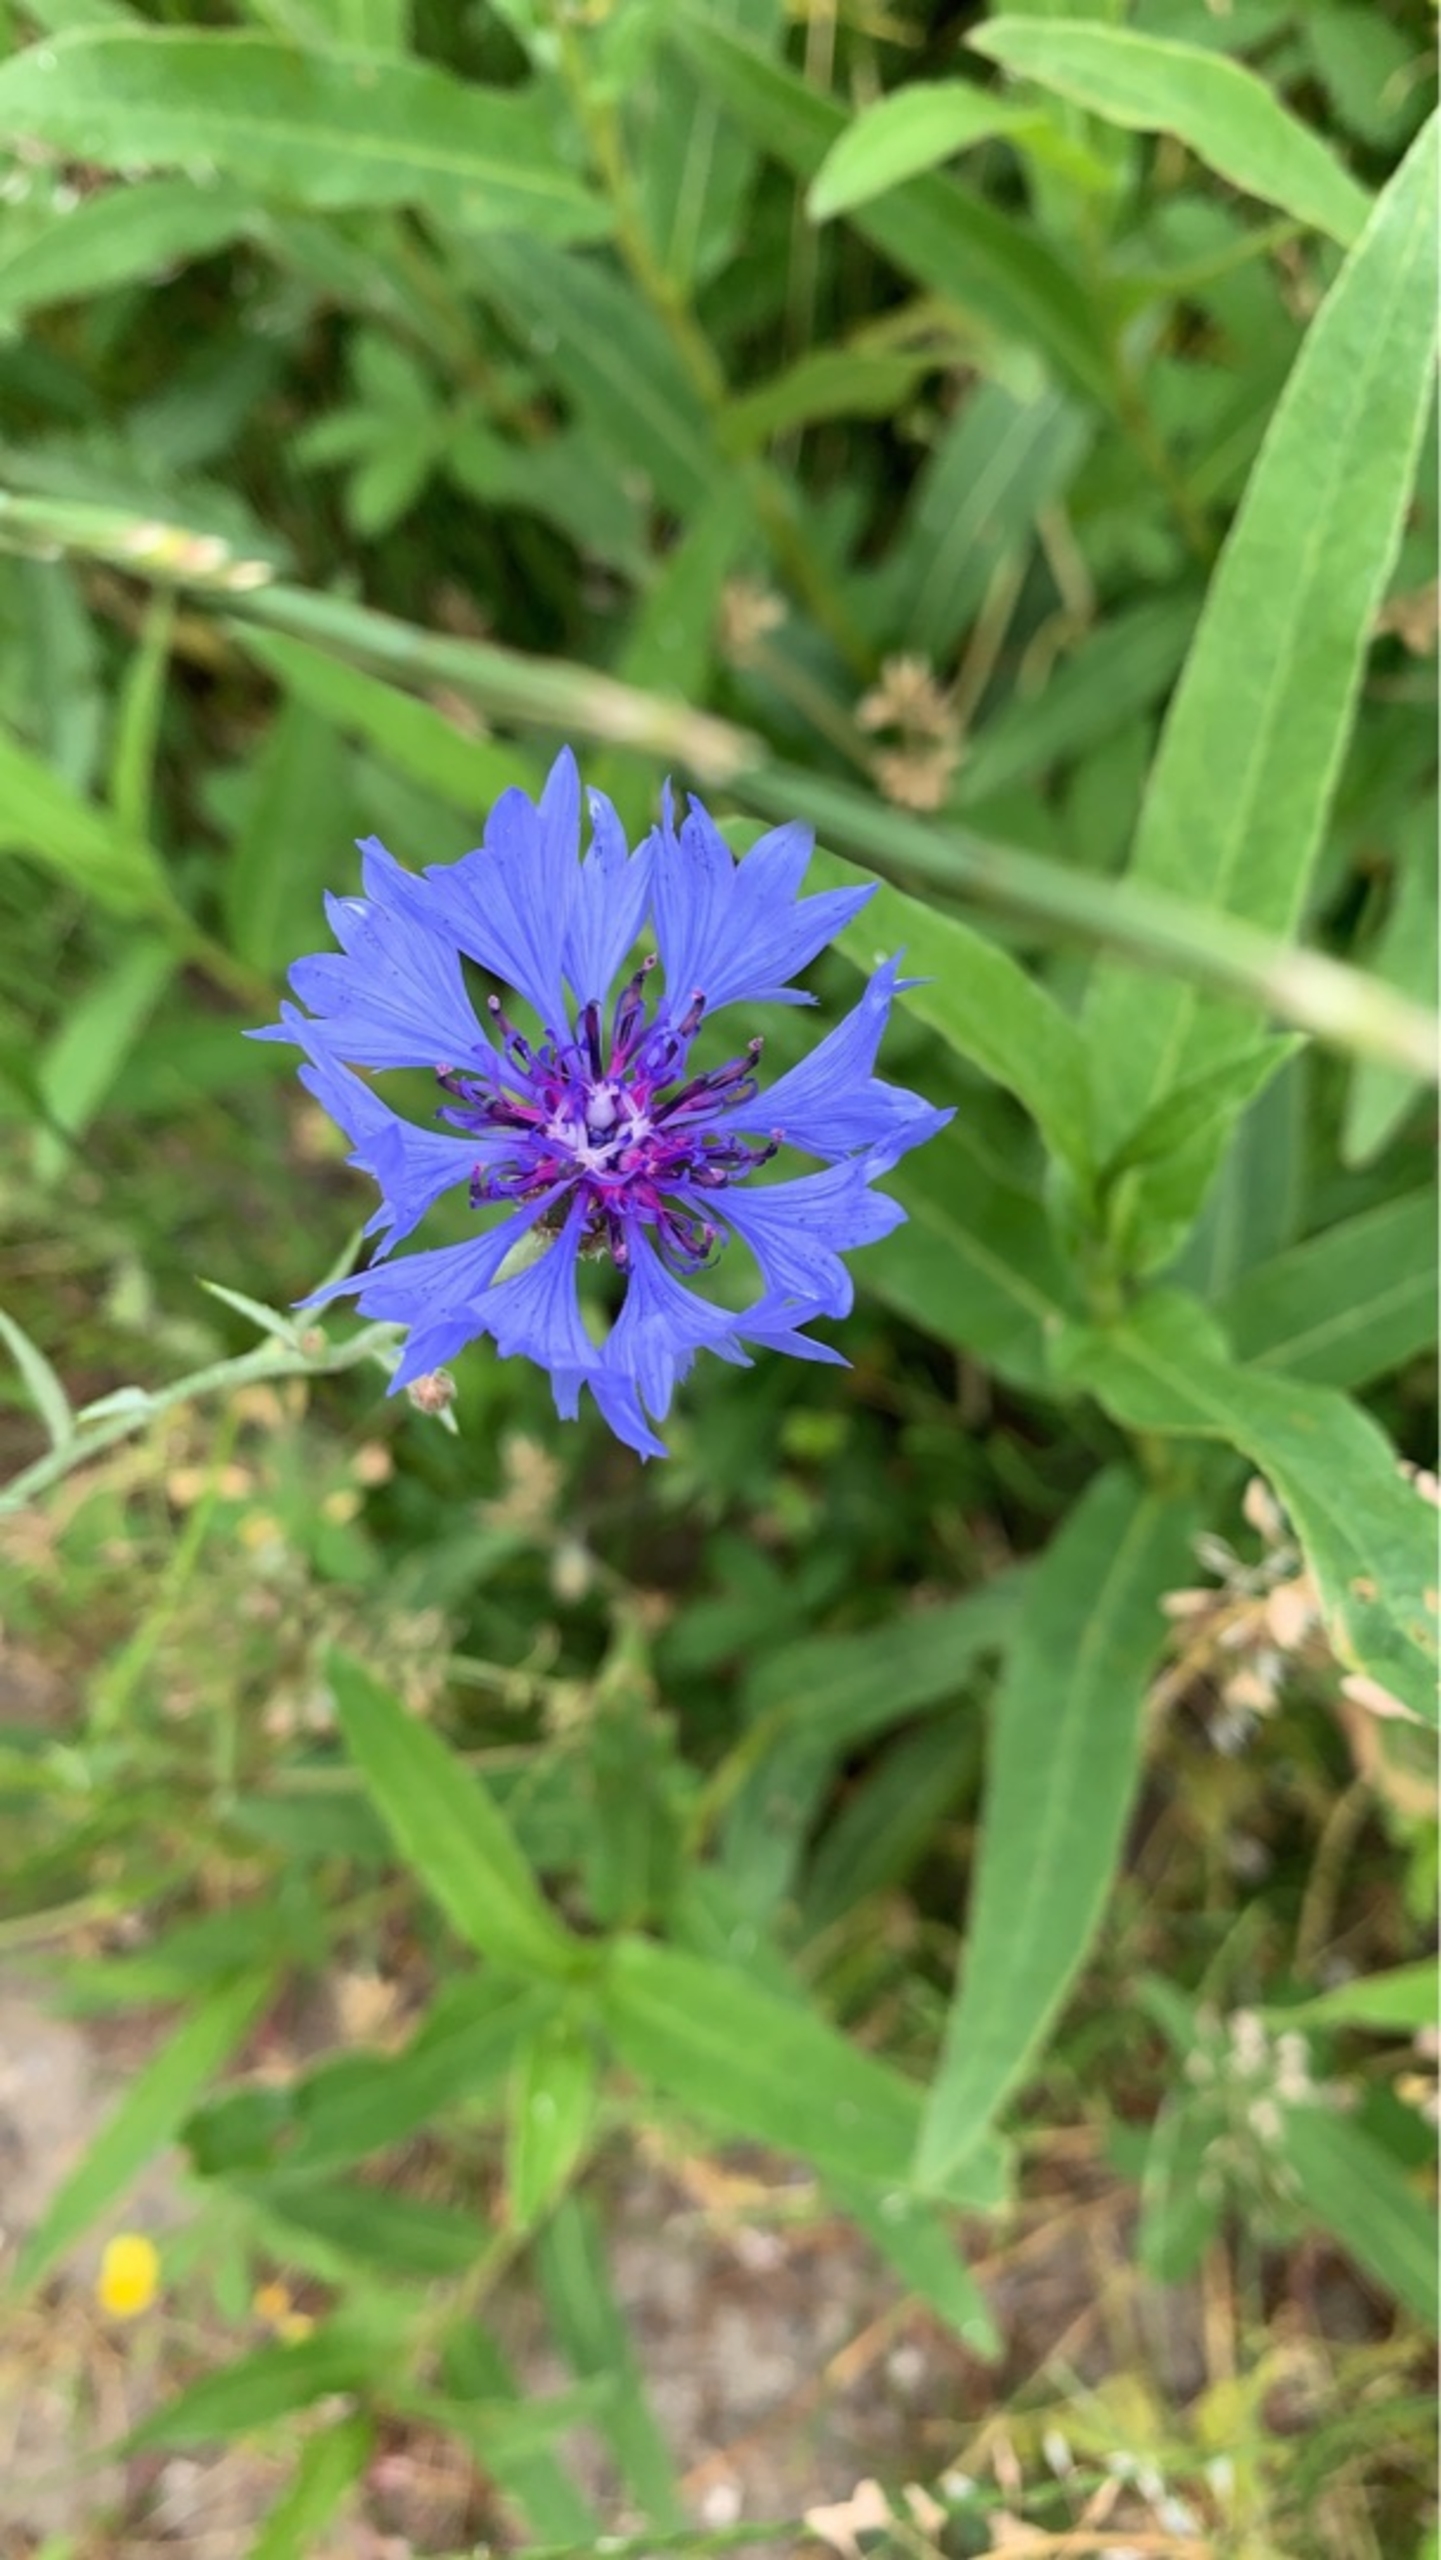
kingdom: Plantae
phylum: Tracheophyta
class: Magnoliopsida
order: Asterales
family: Asteraceae
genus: Centaurea
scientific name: Centaurea cyanus
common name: Kornblomst
